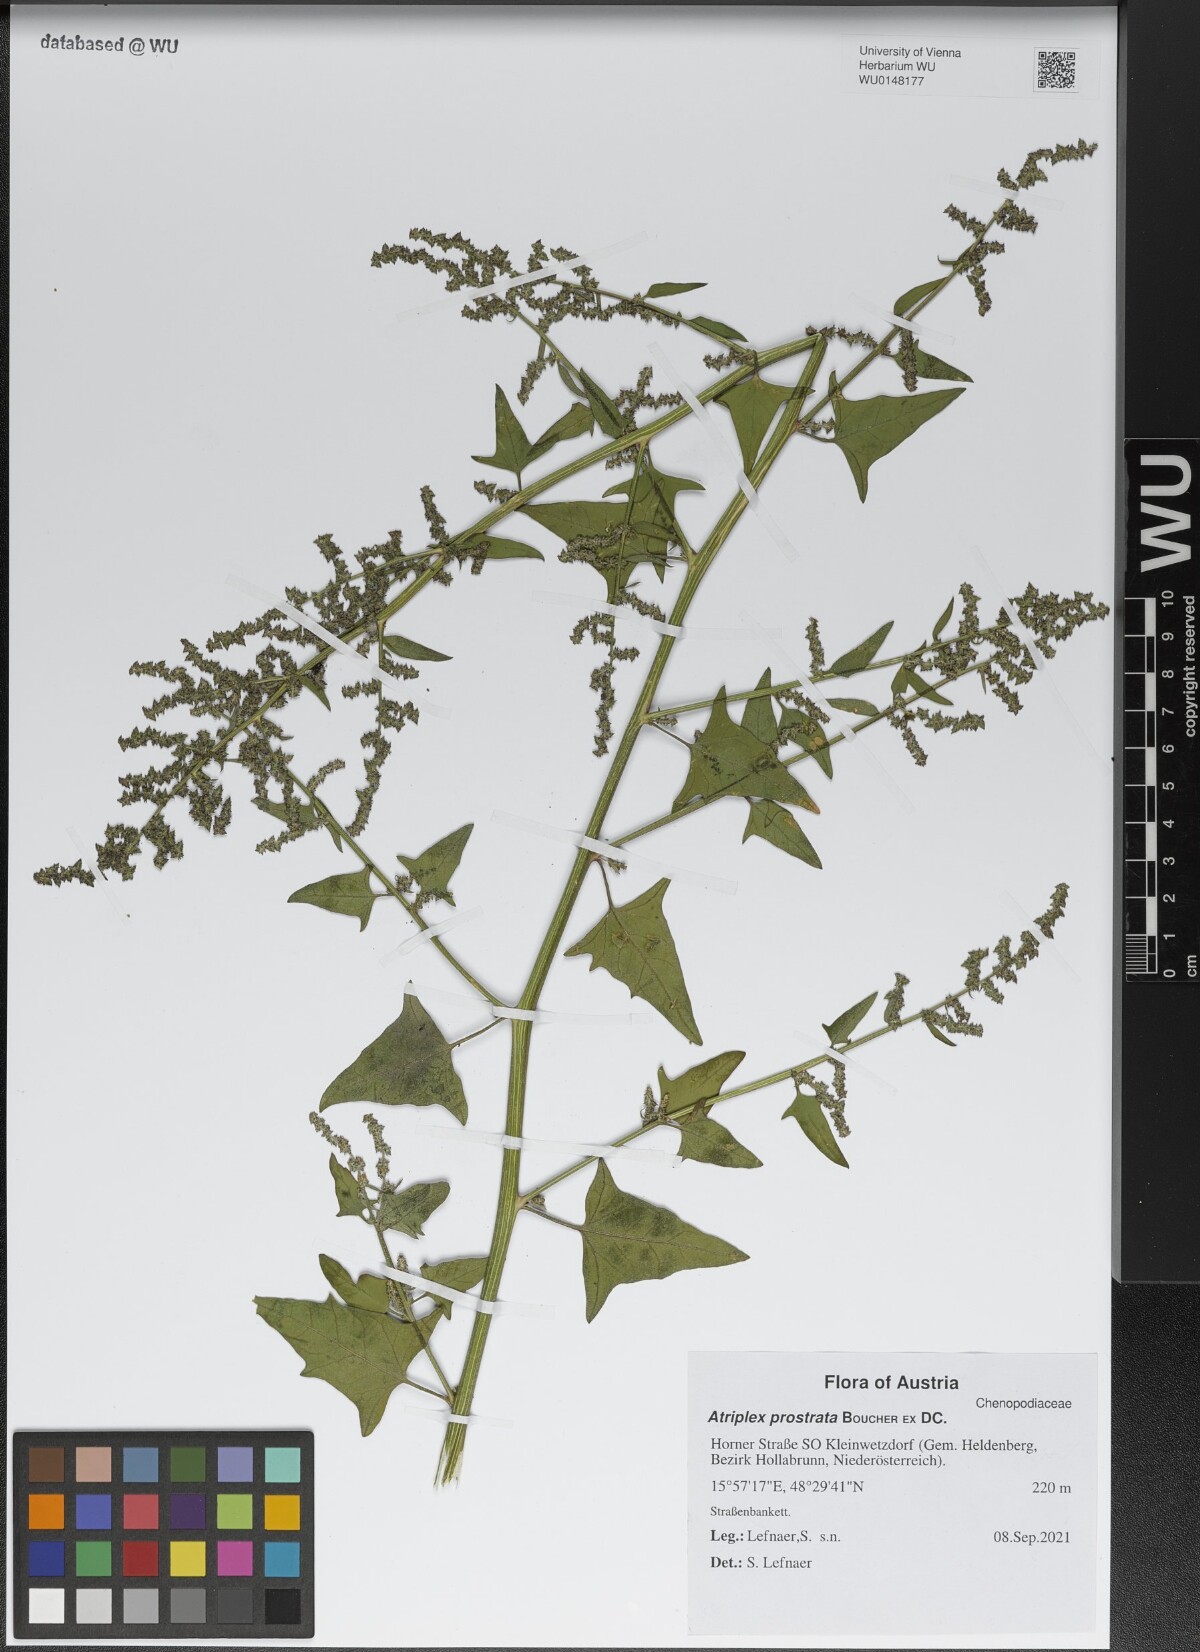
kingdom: Plantae
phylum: Tracheophyta
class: Magnoliopsida
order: Caryophyllales
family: Amaranthaceae
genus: Atriplex
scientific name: Atriplex prostrata
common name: Spear-leaved orache
